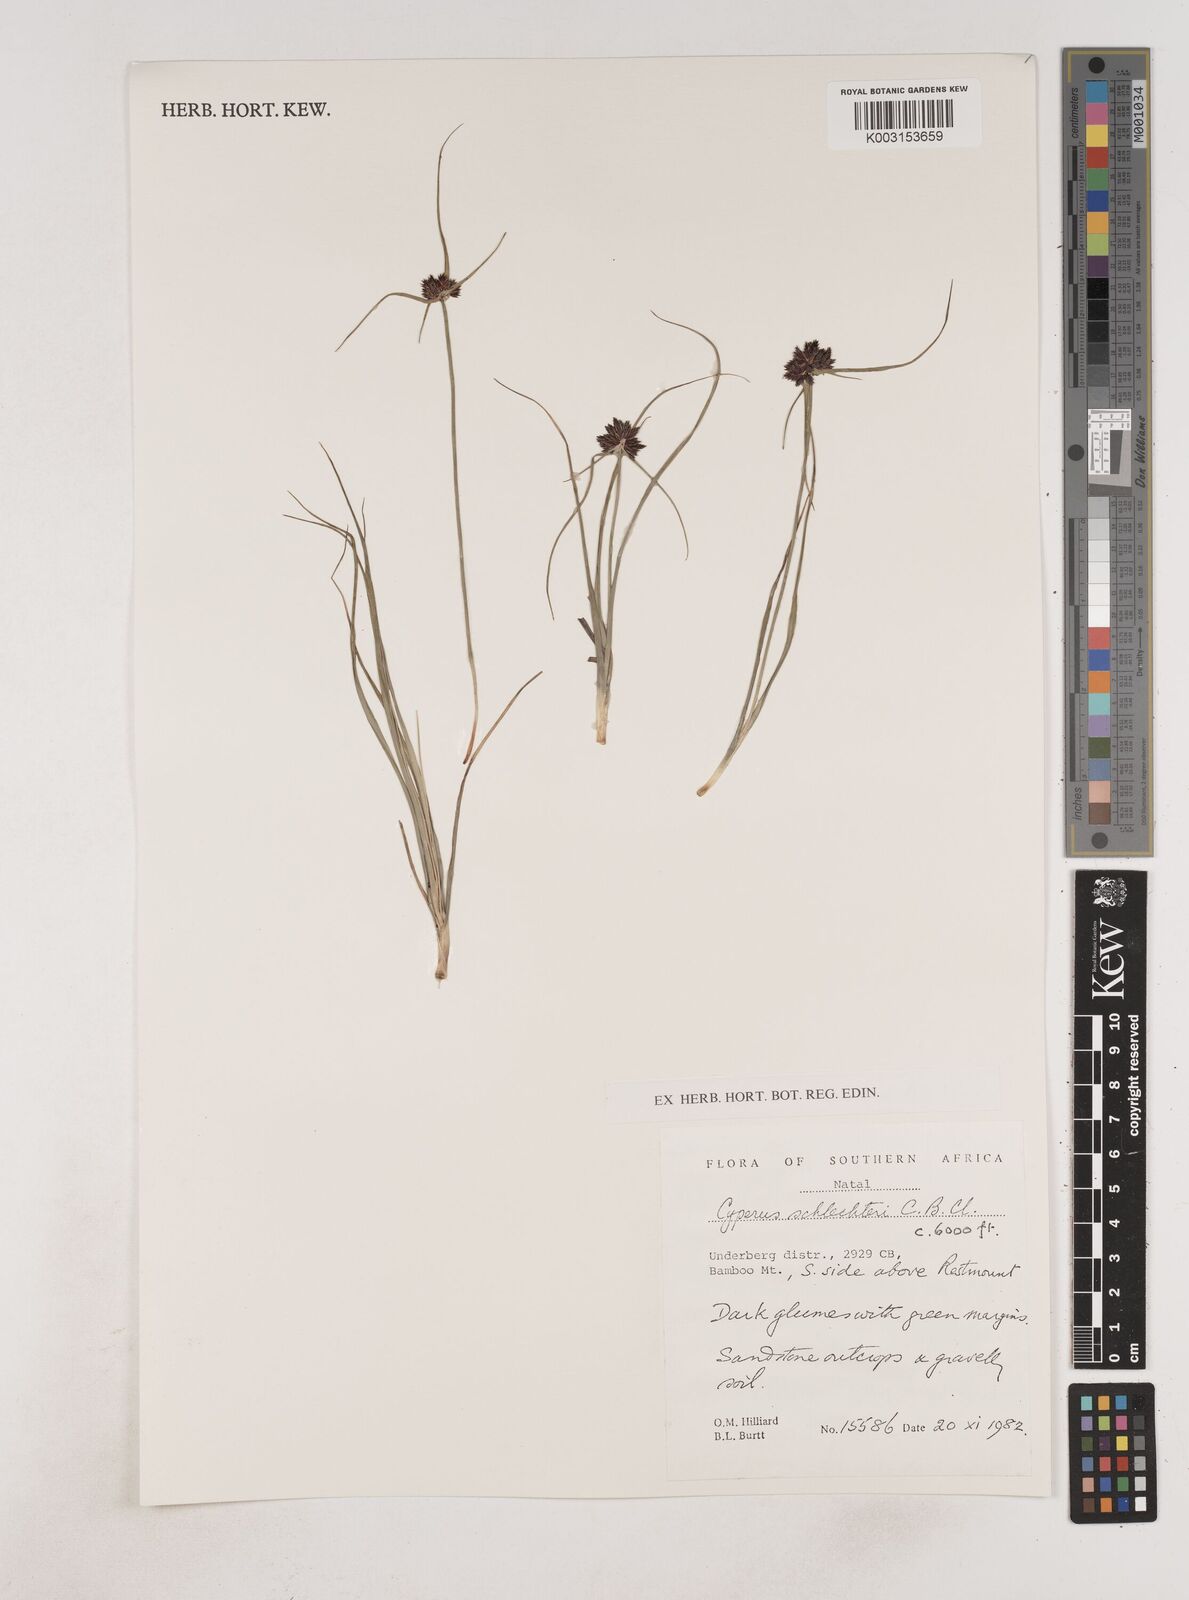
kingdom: Plantae
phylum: Tracheophyta
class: Liliopsida
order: Poales
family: Cyperaceae
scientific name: Cyperaceae
